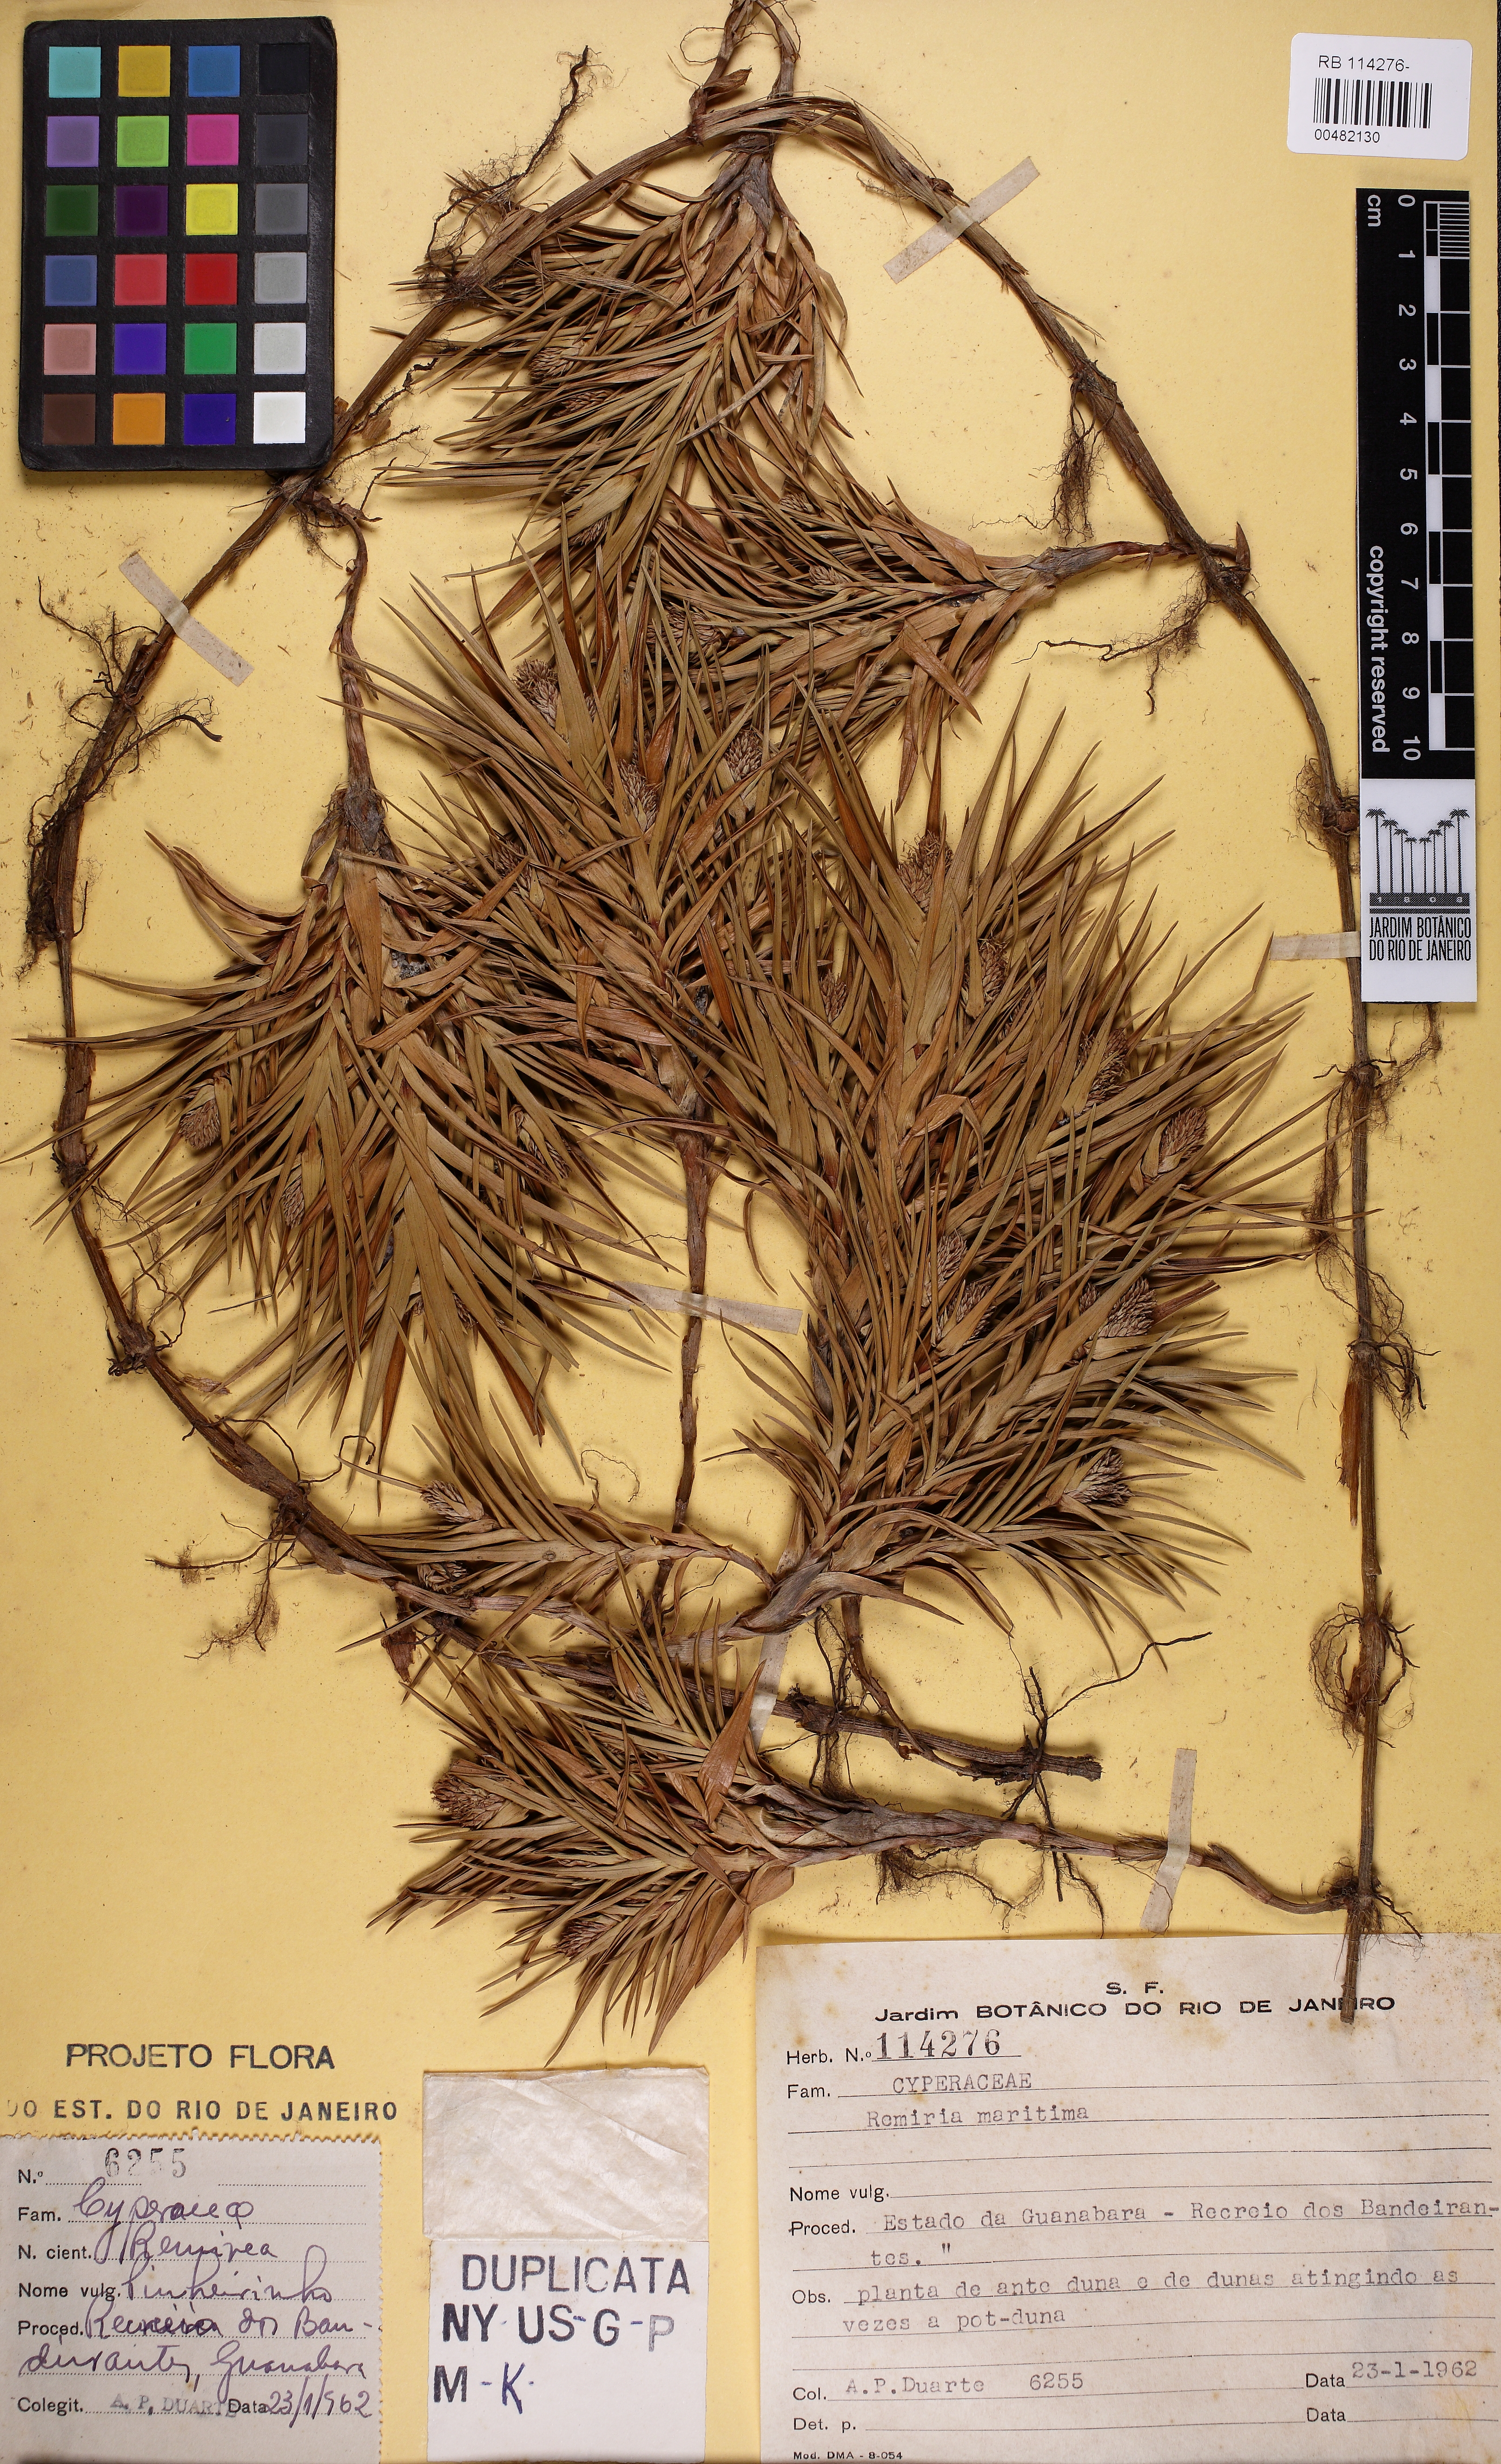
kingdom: Plantae
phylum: Tracheophyta
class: Liliopsida
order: Poales
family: Cyperaceae
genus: Cyperus
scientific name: Cyperus pedunculatus
